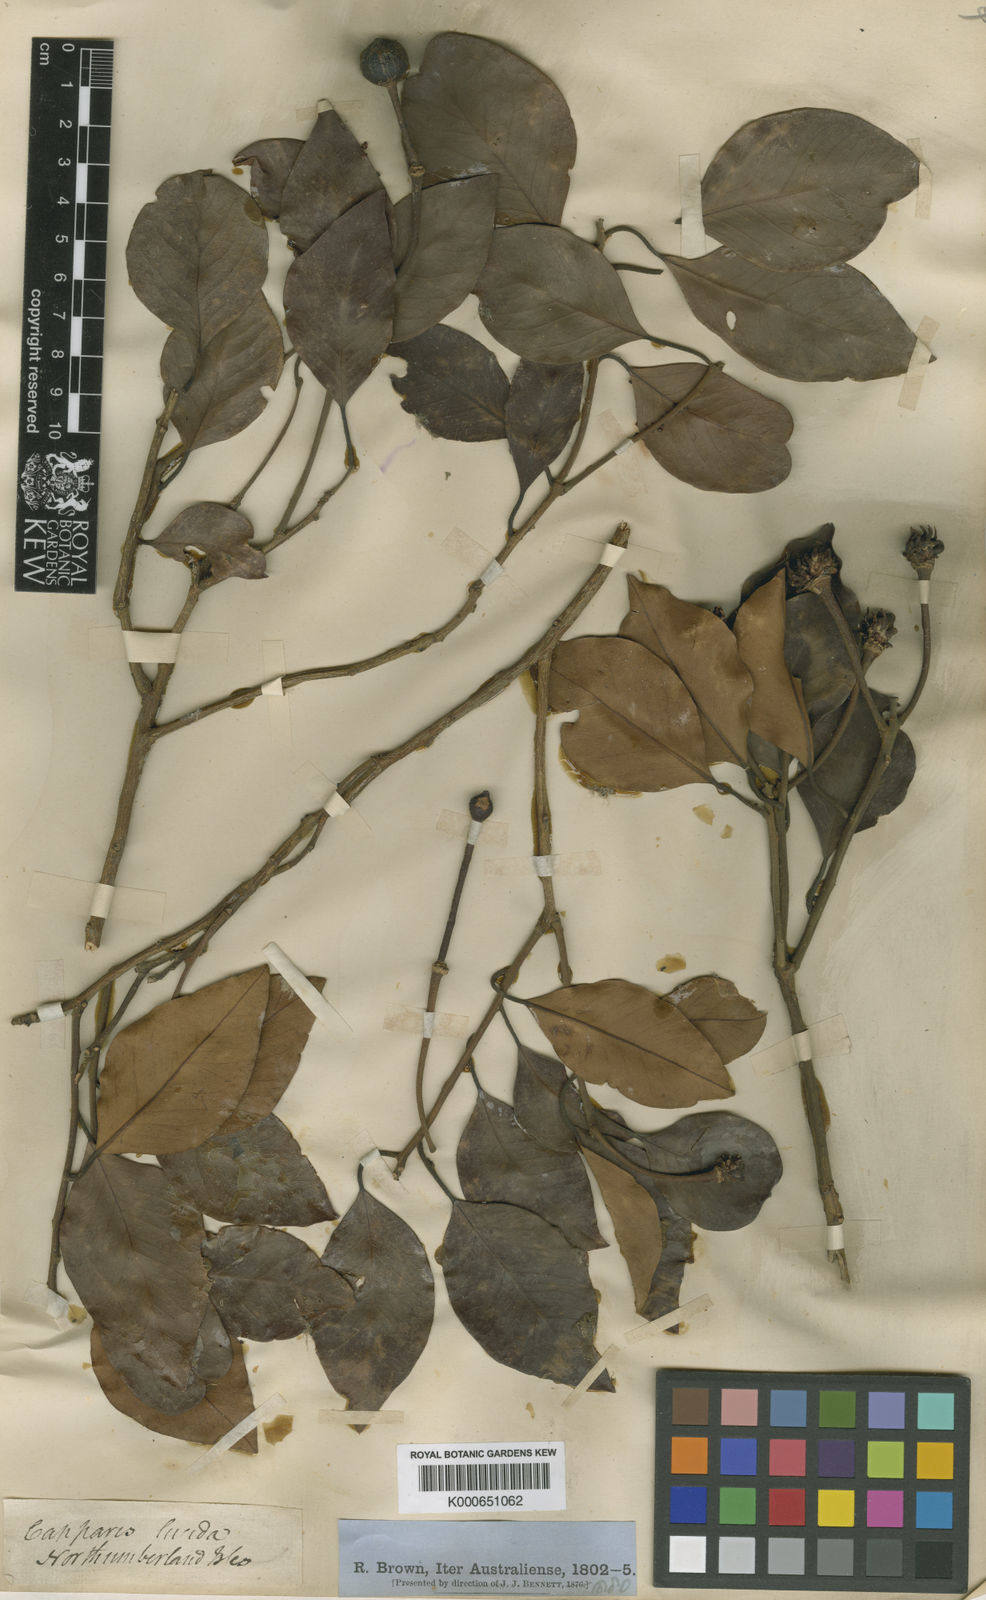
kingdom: Plantae
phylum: Tracheophyta
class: Magnoliopsida
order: Brassicales
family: Capparaceae
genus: Capparis
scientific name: Capparis lucida
